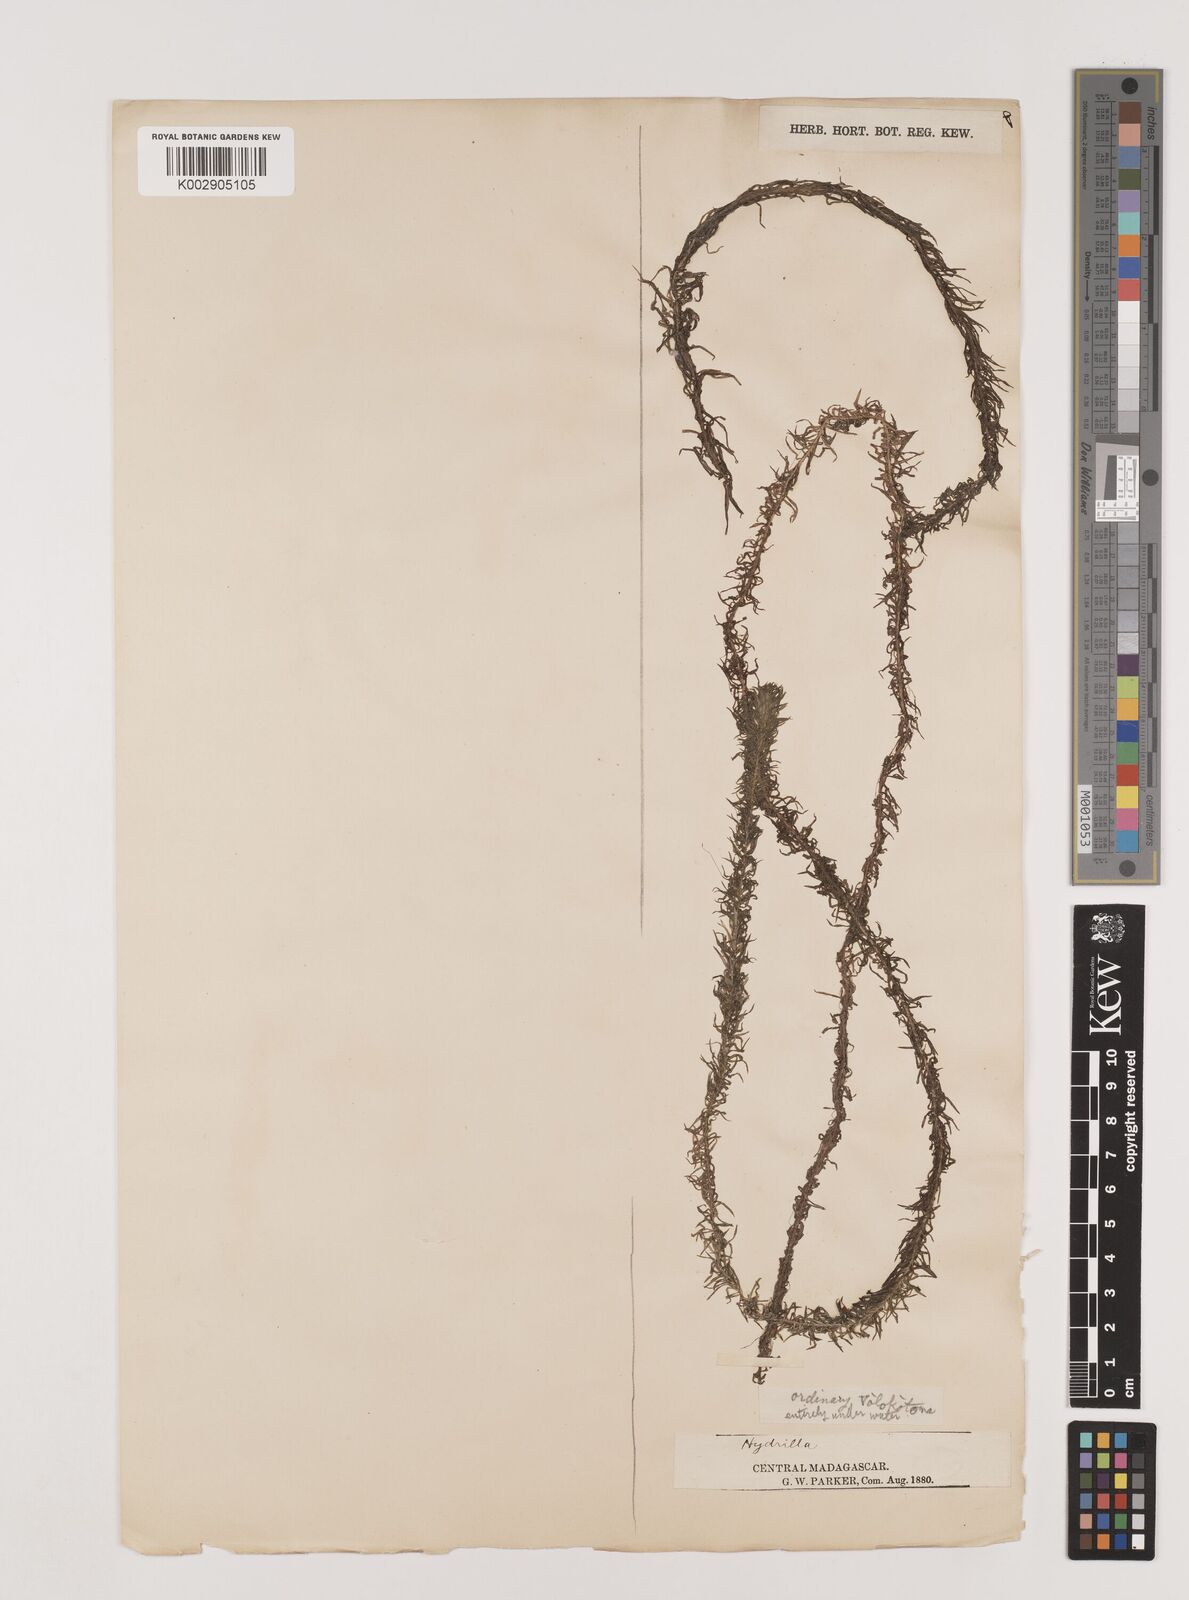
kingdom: Plantae
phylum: Tracheophyta
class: Liliopsida
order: Alismatales
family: Hydrocharitaceae
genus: Lagarosiphon
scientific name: Lagarosiphon madagascariensis
